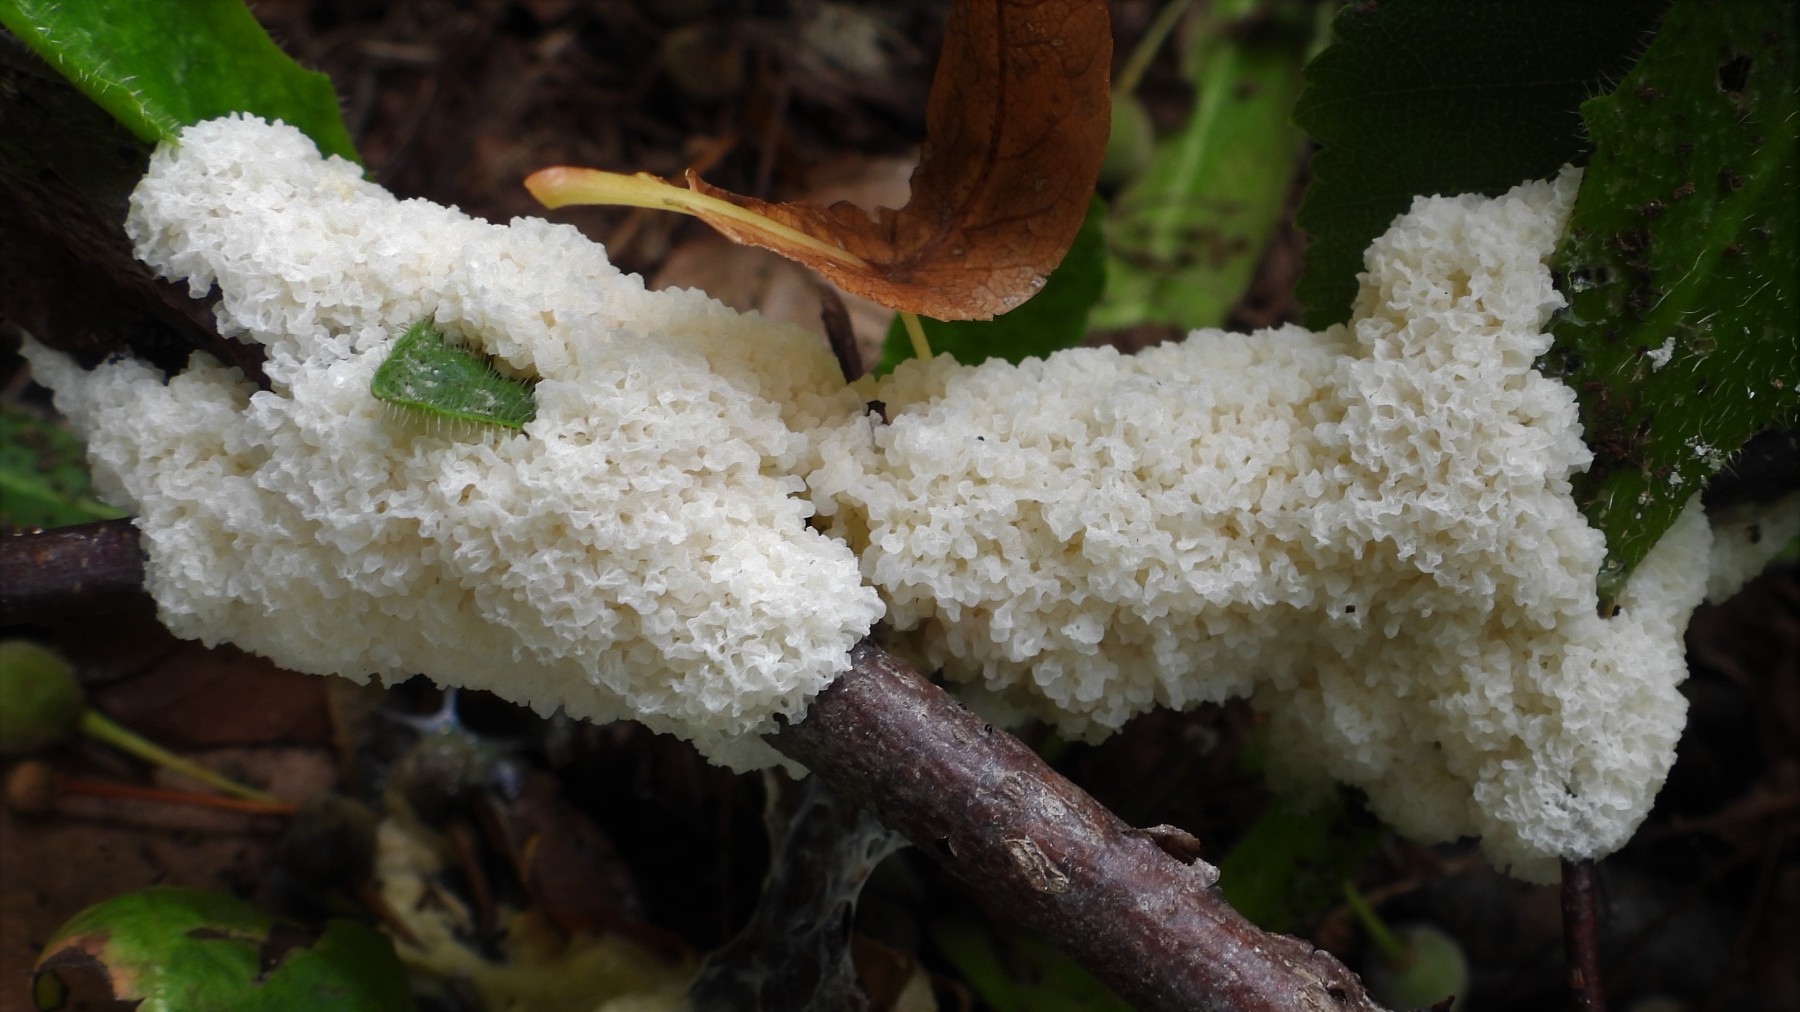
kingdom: Protozoa
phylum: Mycetozoa
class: Myxomycetes
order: Physarales
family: Physaraceae
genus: Didymium
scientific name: Didymium
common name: urteskum
